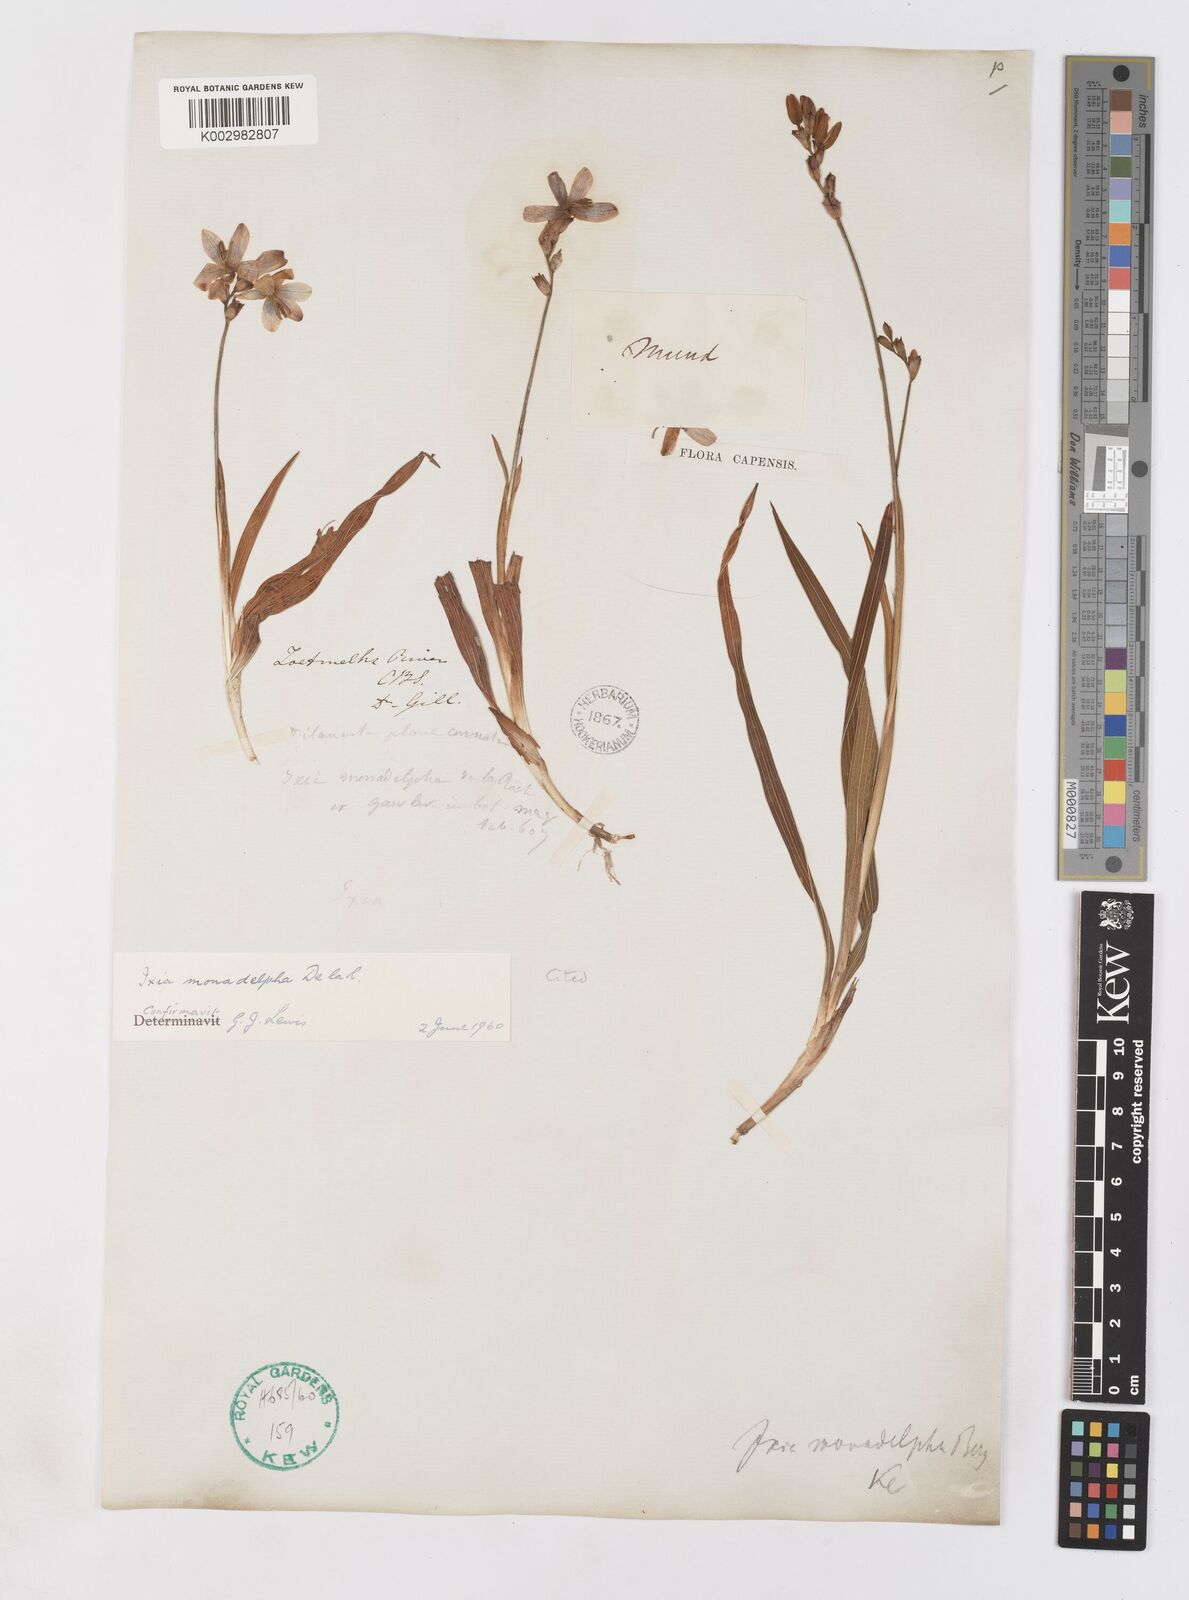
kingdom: Plantae
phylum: Tracheophyta
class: Liliopsida
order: Asparagales
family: Iridaceae
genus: Ixia
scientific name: Ixia monadelpha
